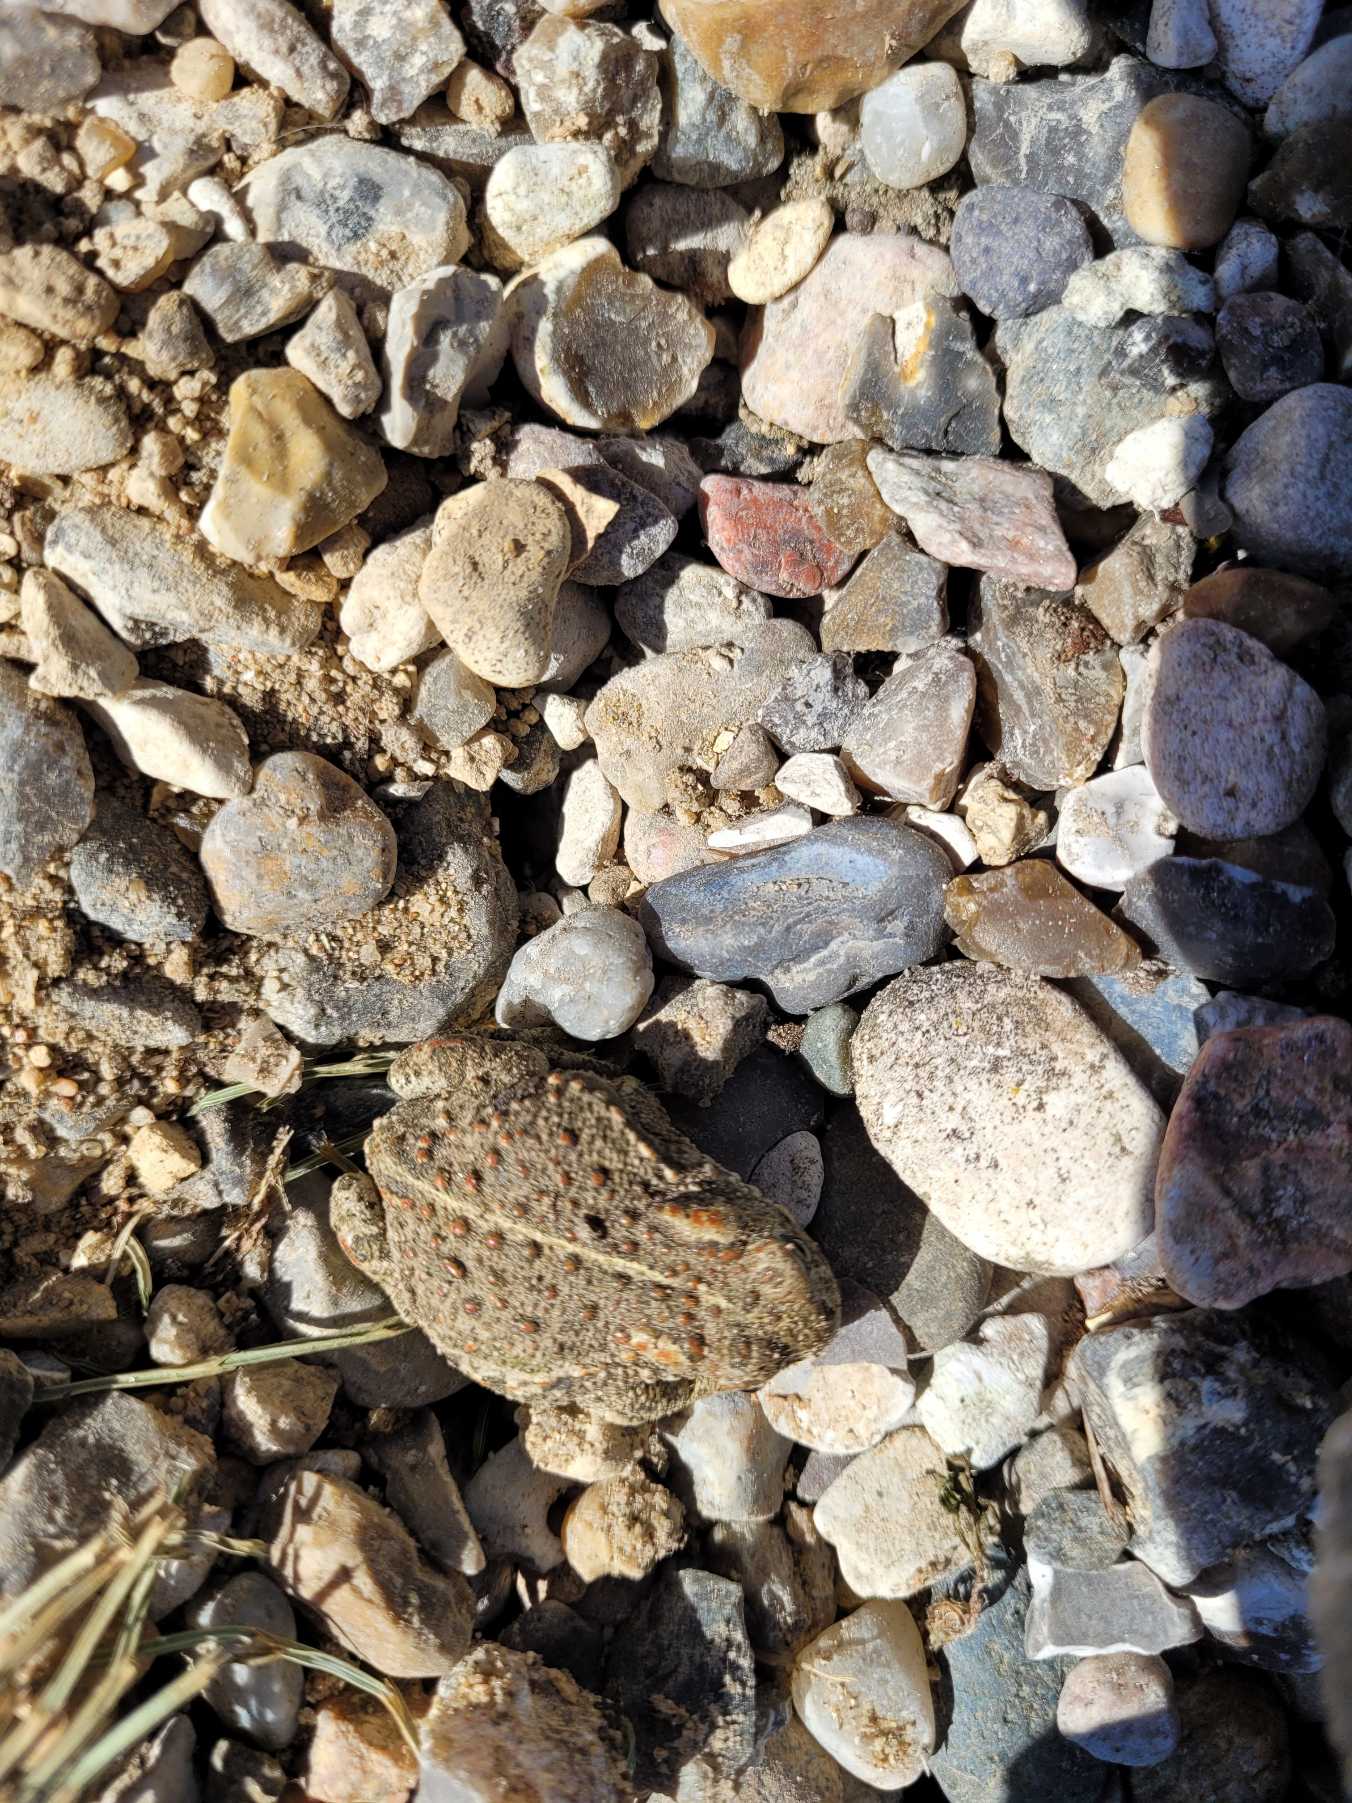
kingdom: Animalia
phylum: Chordata
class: Amphibia
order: Anura
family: Bufonidae
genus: Epidalea
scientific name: Epidalea calamita
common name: Strandtudse
